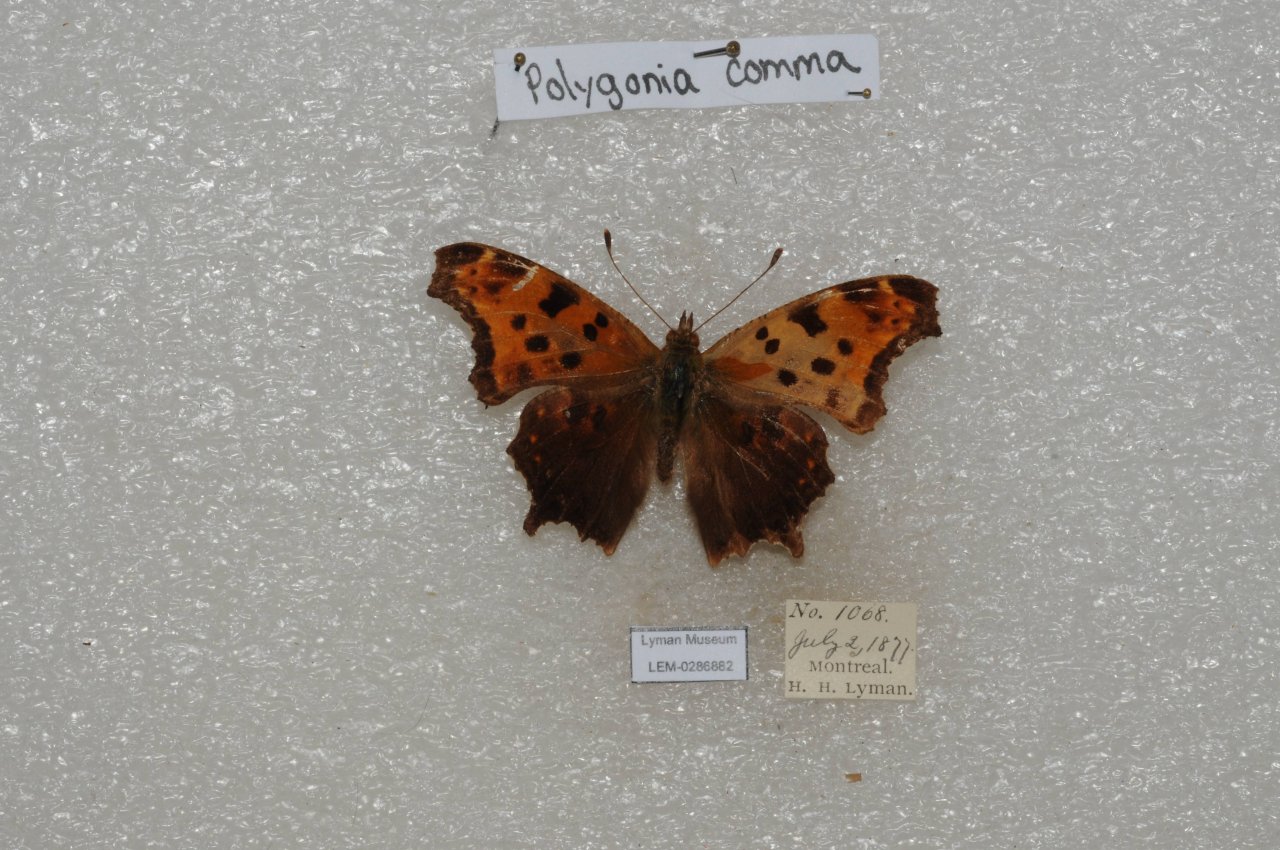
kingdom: Animalia
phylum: Arthropoda
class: Insecta
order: Lepidoptera
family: Nymphalidae
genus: Polygonia
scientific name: Polygonia comma
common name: Eastern Comma
